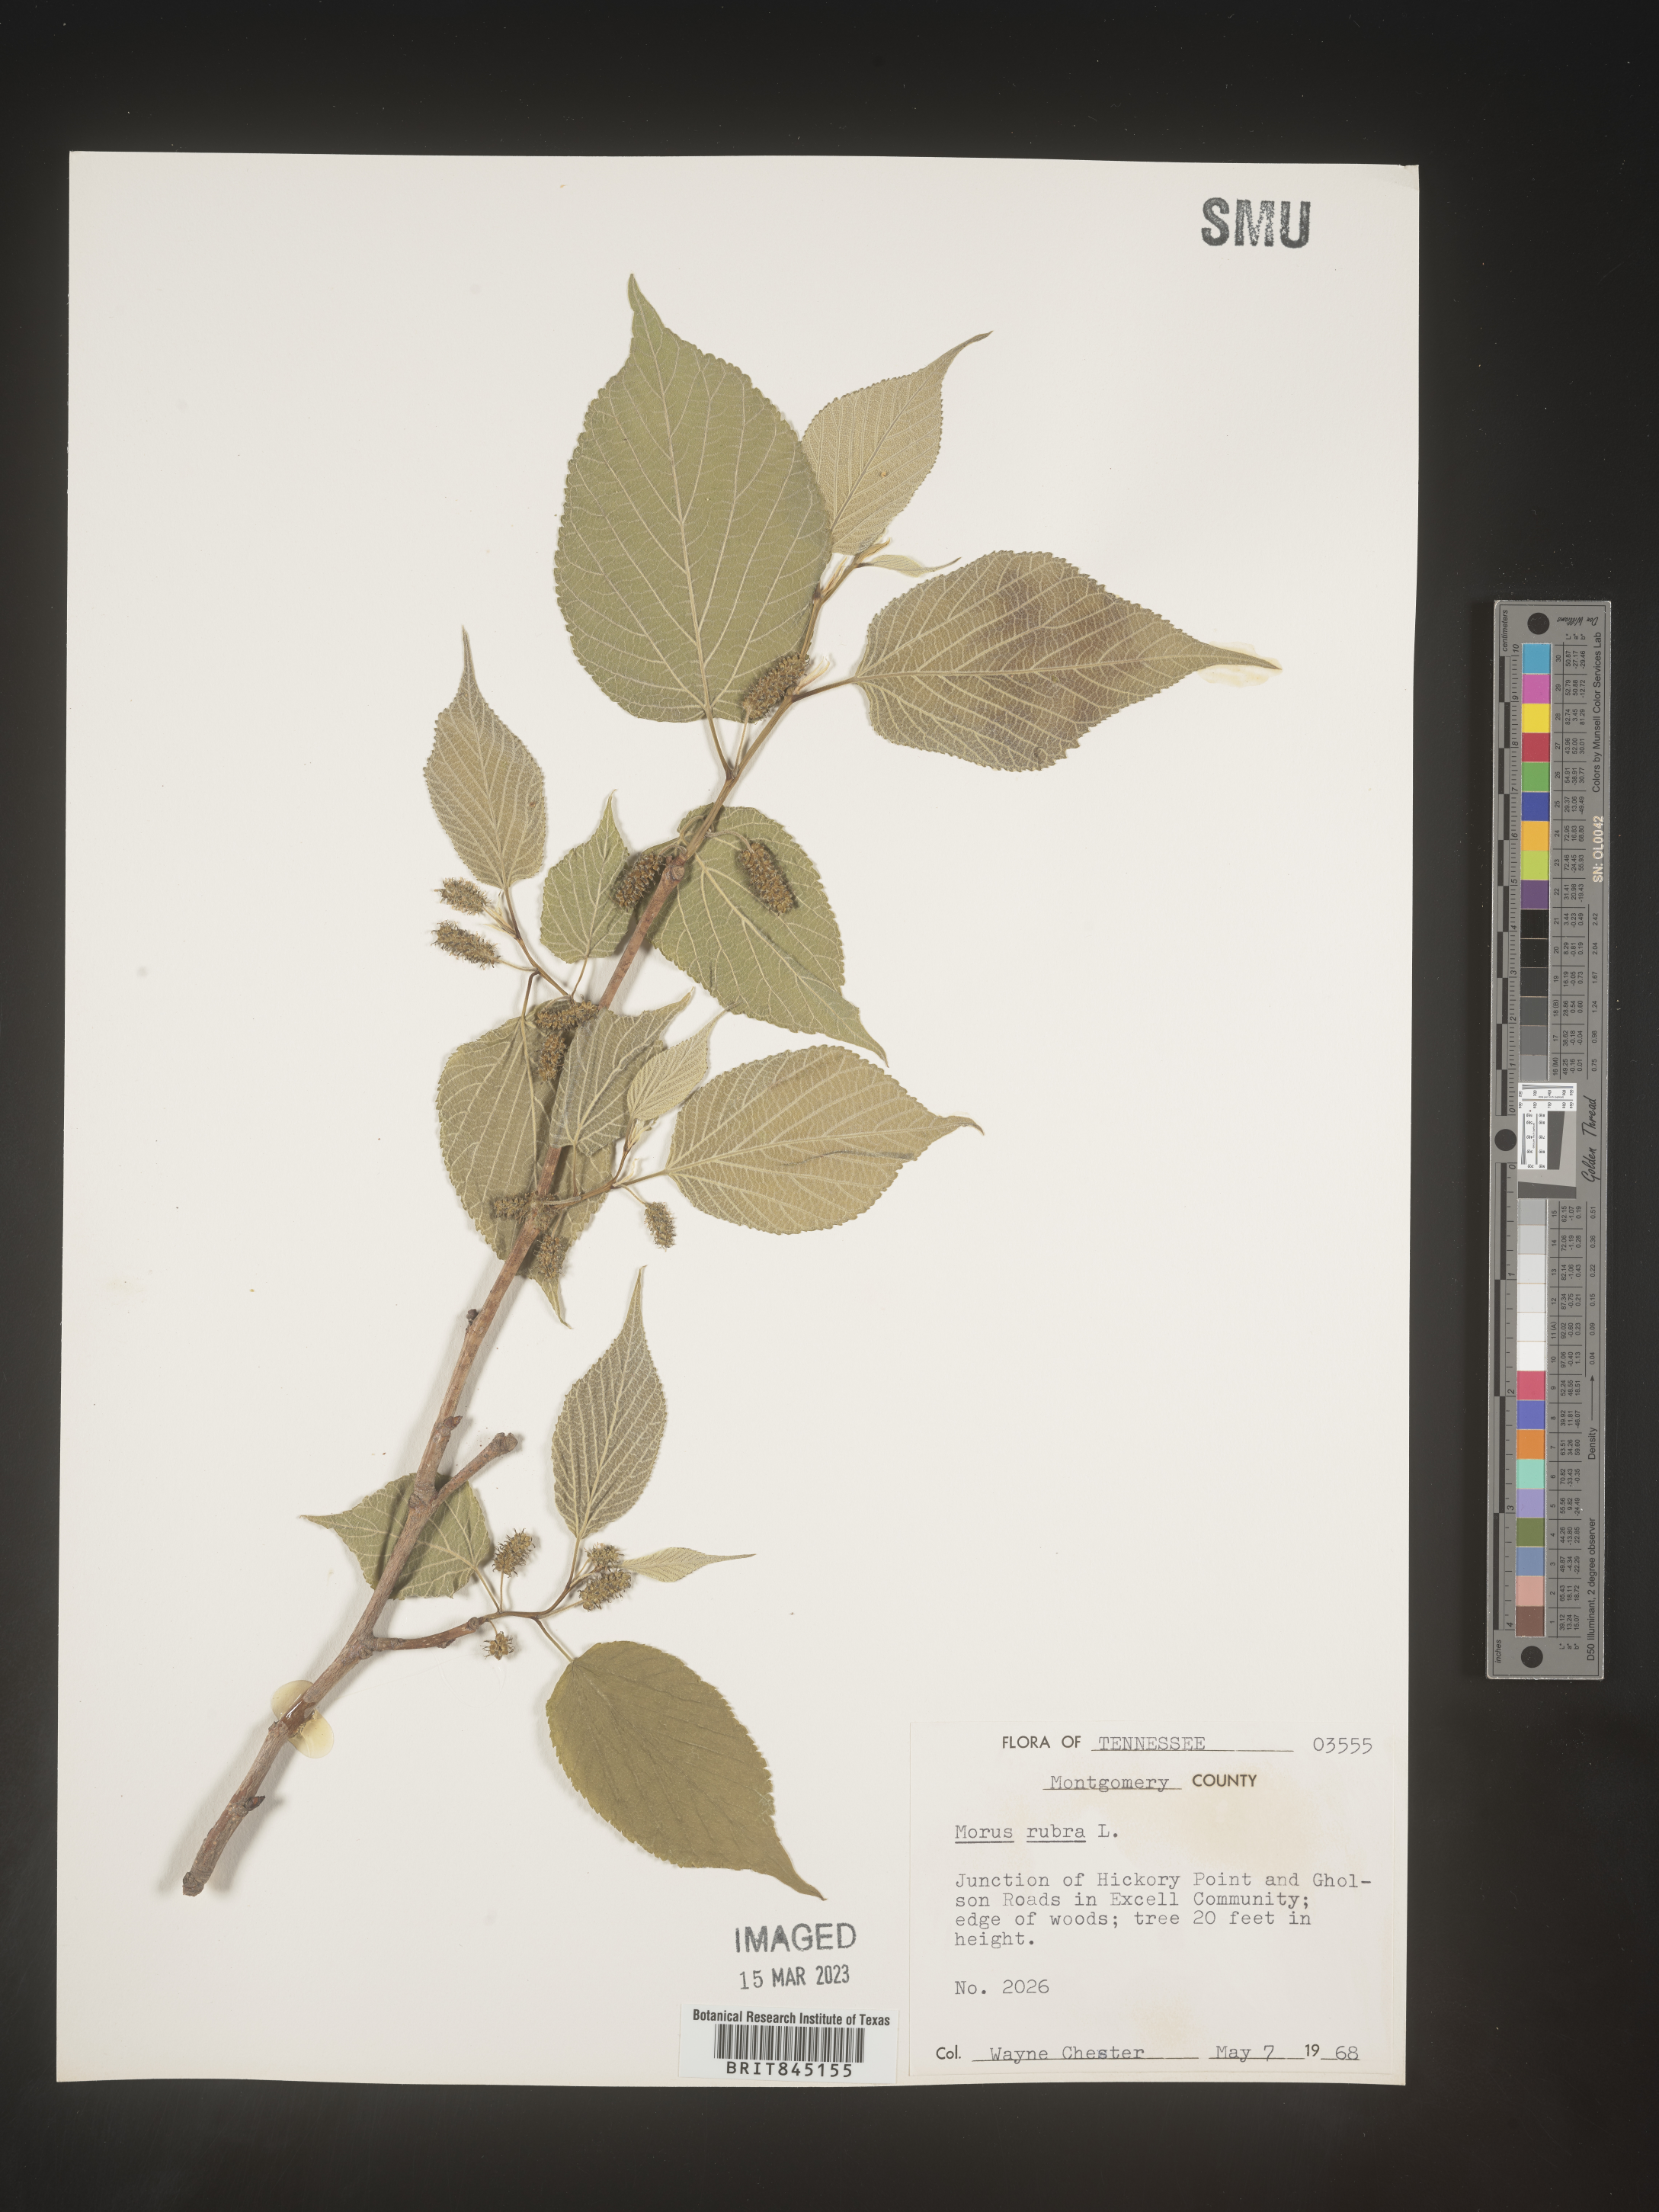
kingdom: Plantae
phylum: Tracheophyta
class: Magnoliopsida
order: Rosales
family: Moraceae
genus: Morus
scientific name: Morus rubra
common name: Red mulberry
